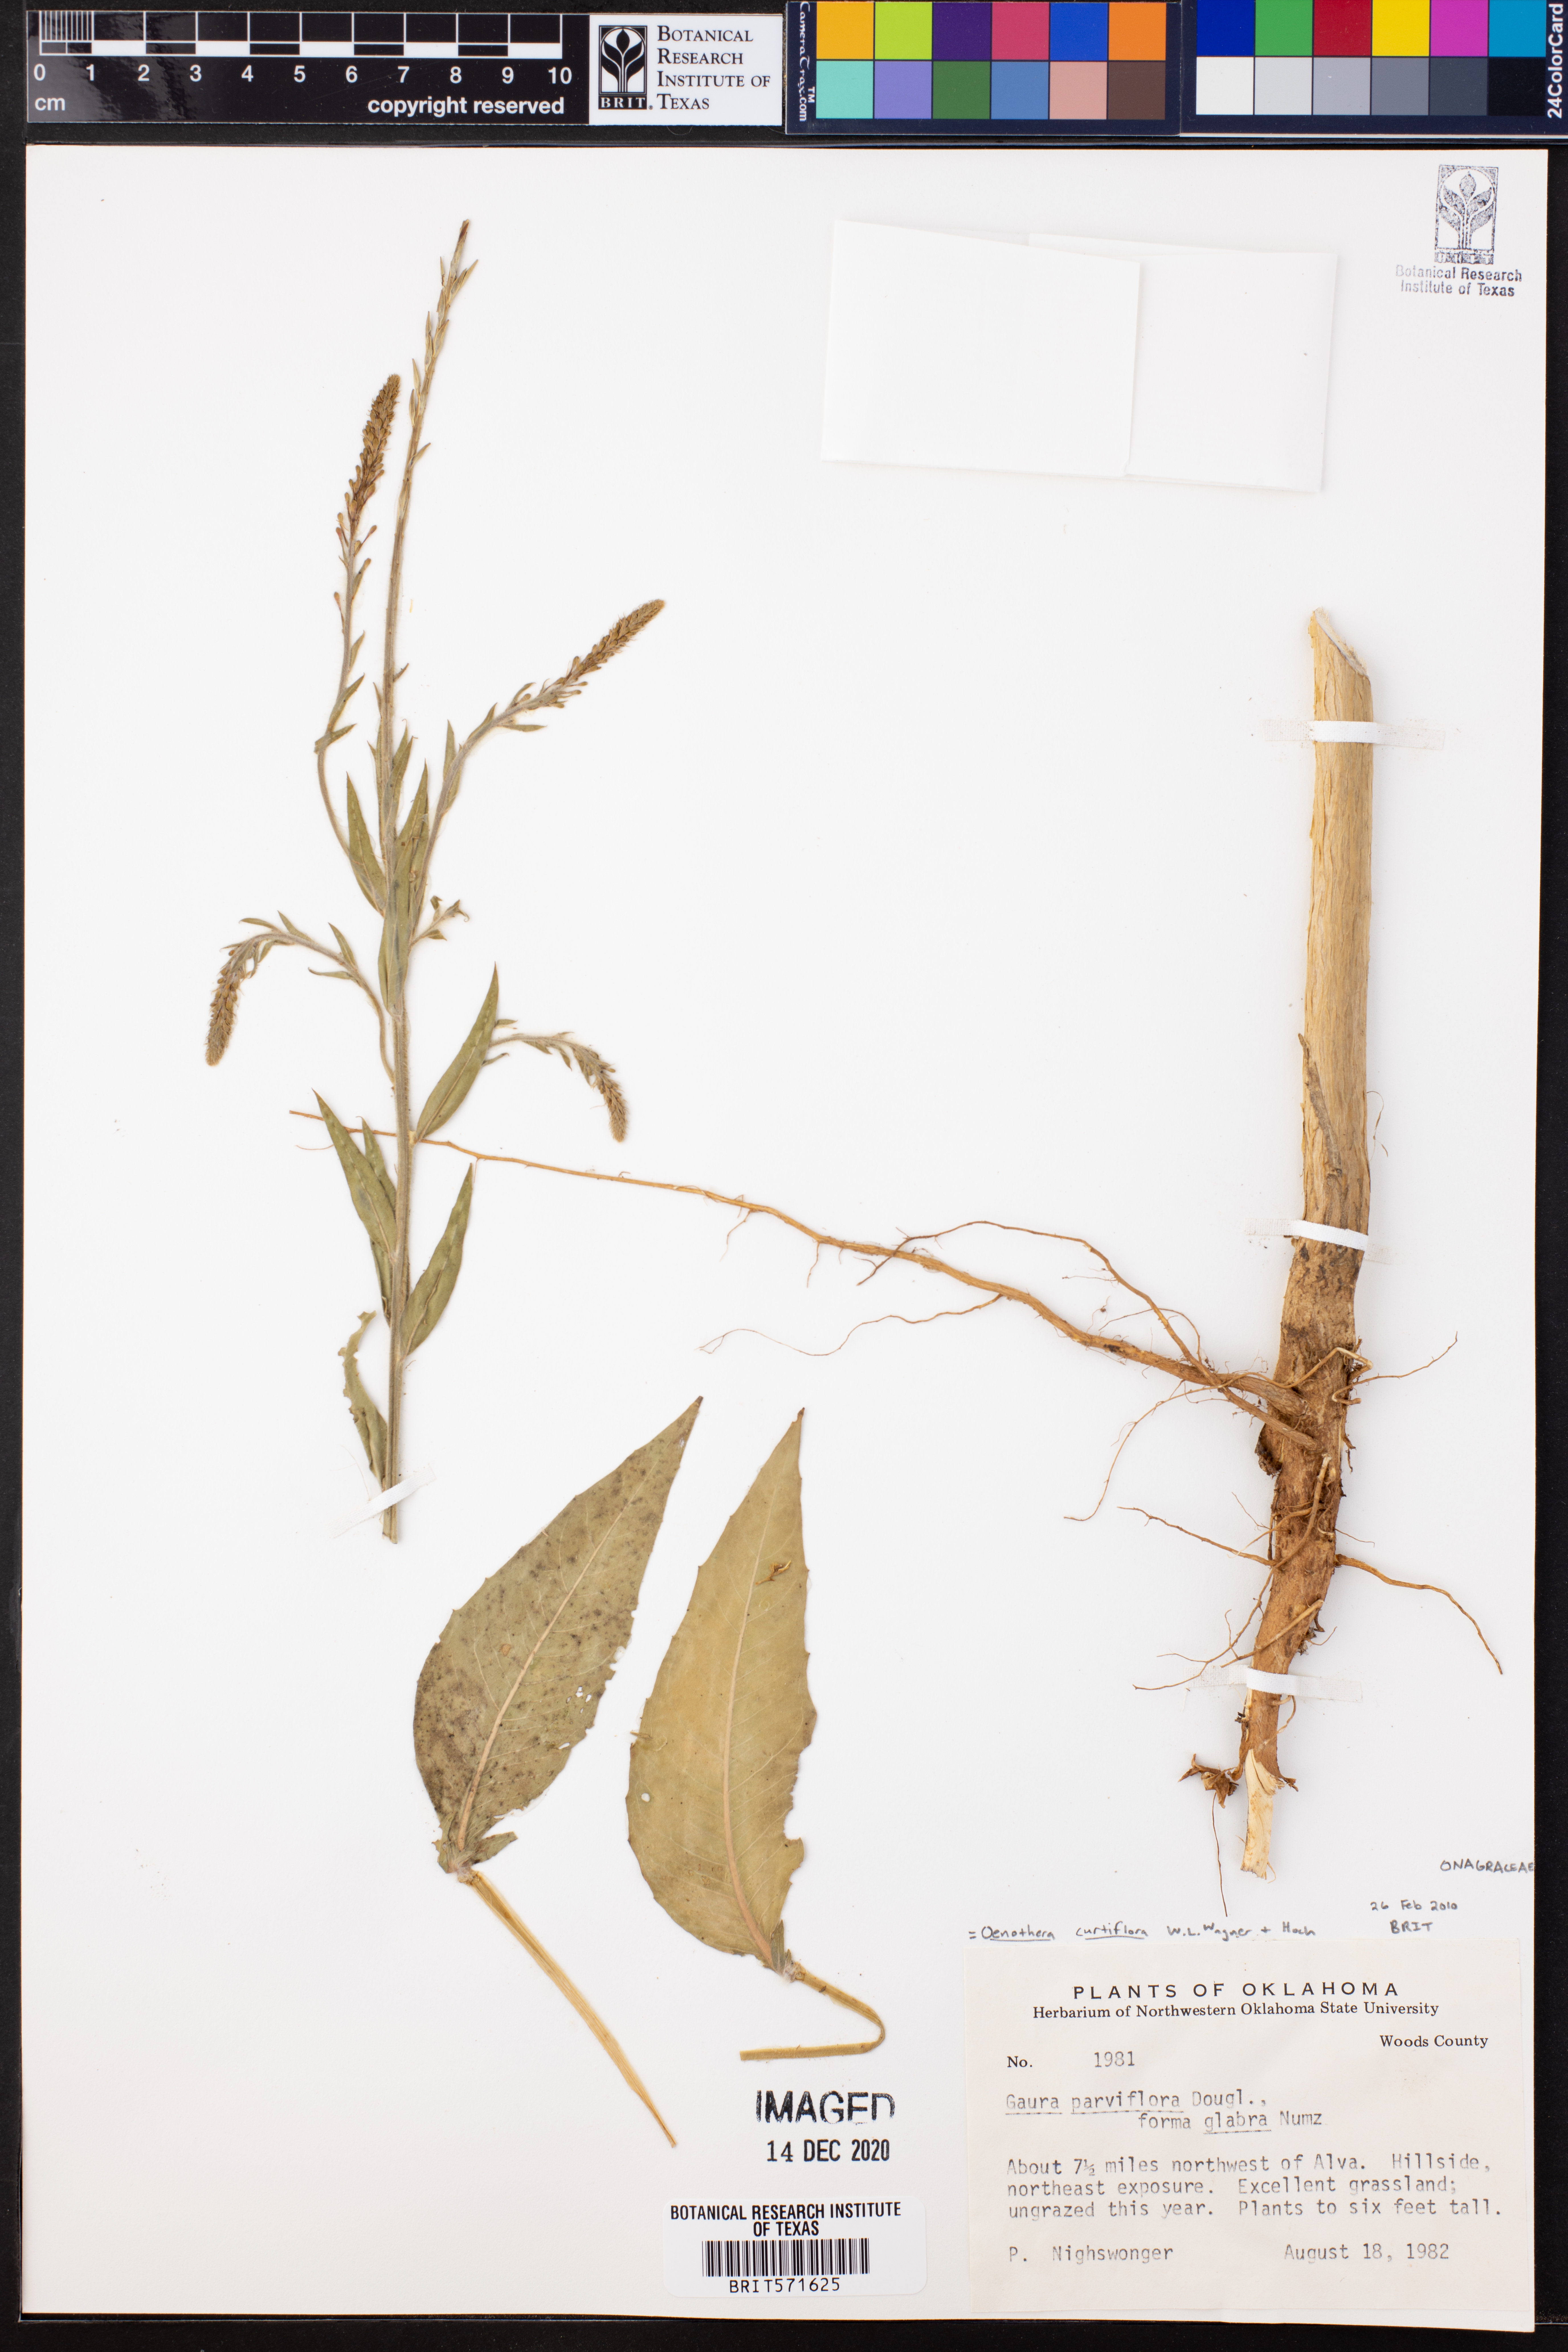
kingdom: Plantae
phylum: Tracheophyta
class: Magnoliopsida
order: Myrtales
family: Onagraceae
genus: Oenothera
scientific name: Oenothera curtiflora
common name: Velvetweed
